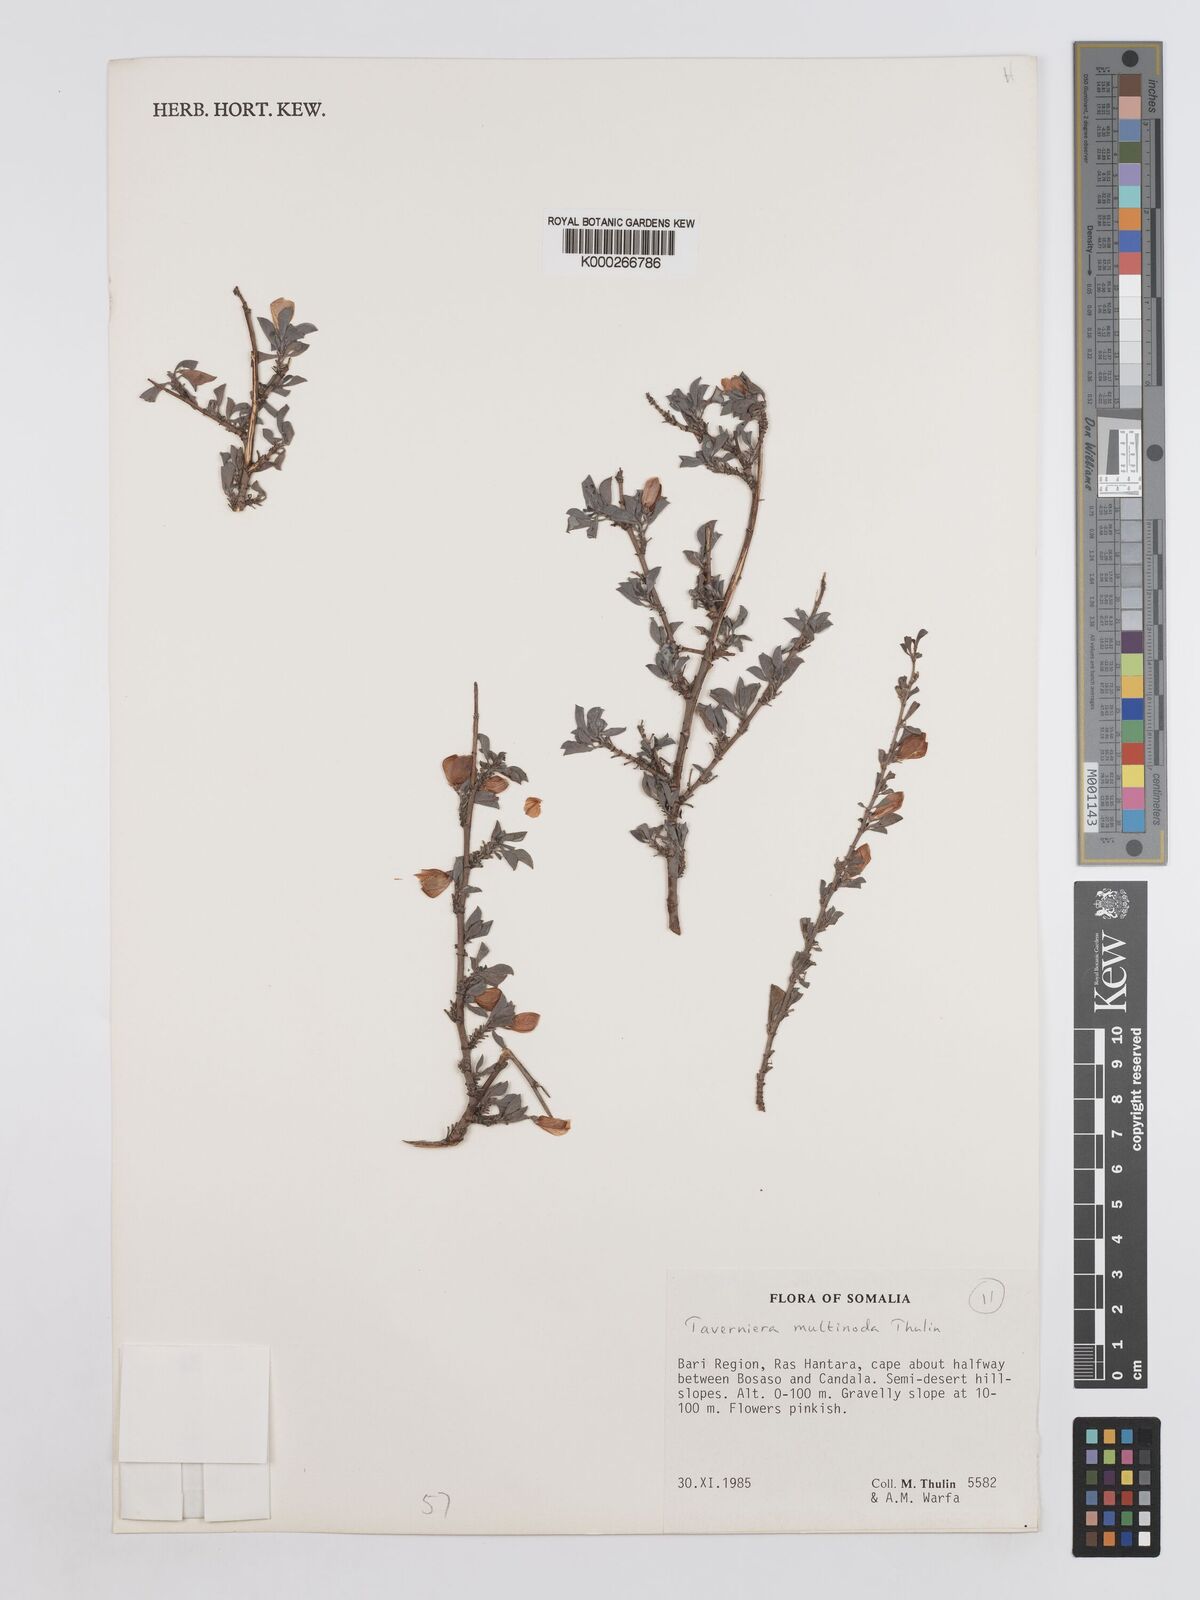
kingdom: Plantae
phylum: Tracheophyta
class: Magnoliopsida
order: Fabales
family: Fabaceae
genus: Taverniera
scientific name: Taverniera multinoda
